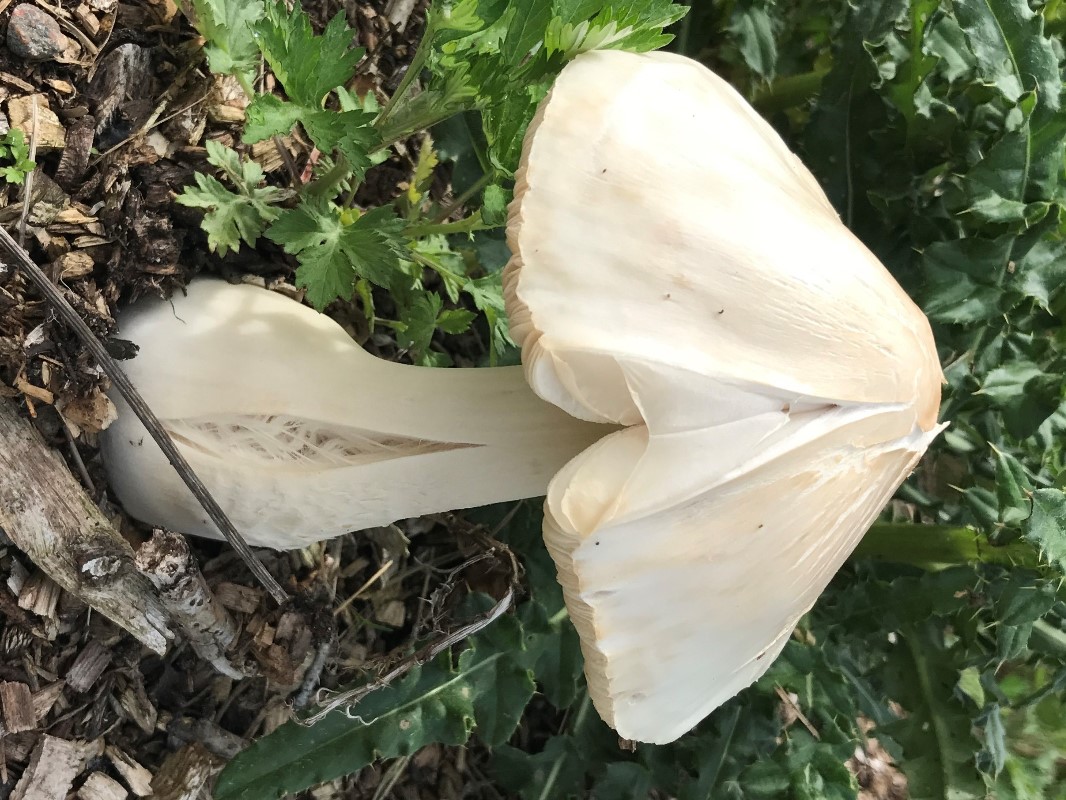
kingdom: Fungi
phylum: Basidiomycota
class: Agaricomycetes
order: Agaricales
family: Pluteaceae
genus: Volvopluteus
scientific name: Volvopluteus gloiocephalus
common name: høj posesvamp
